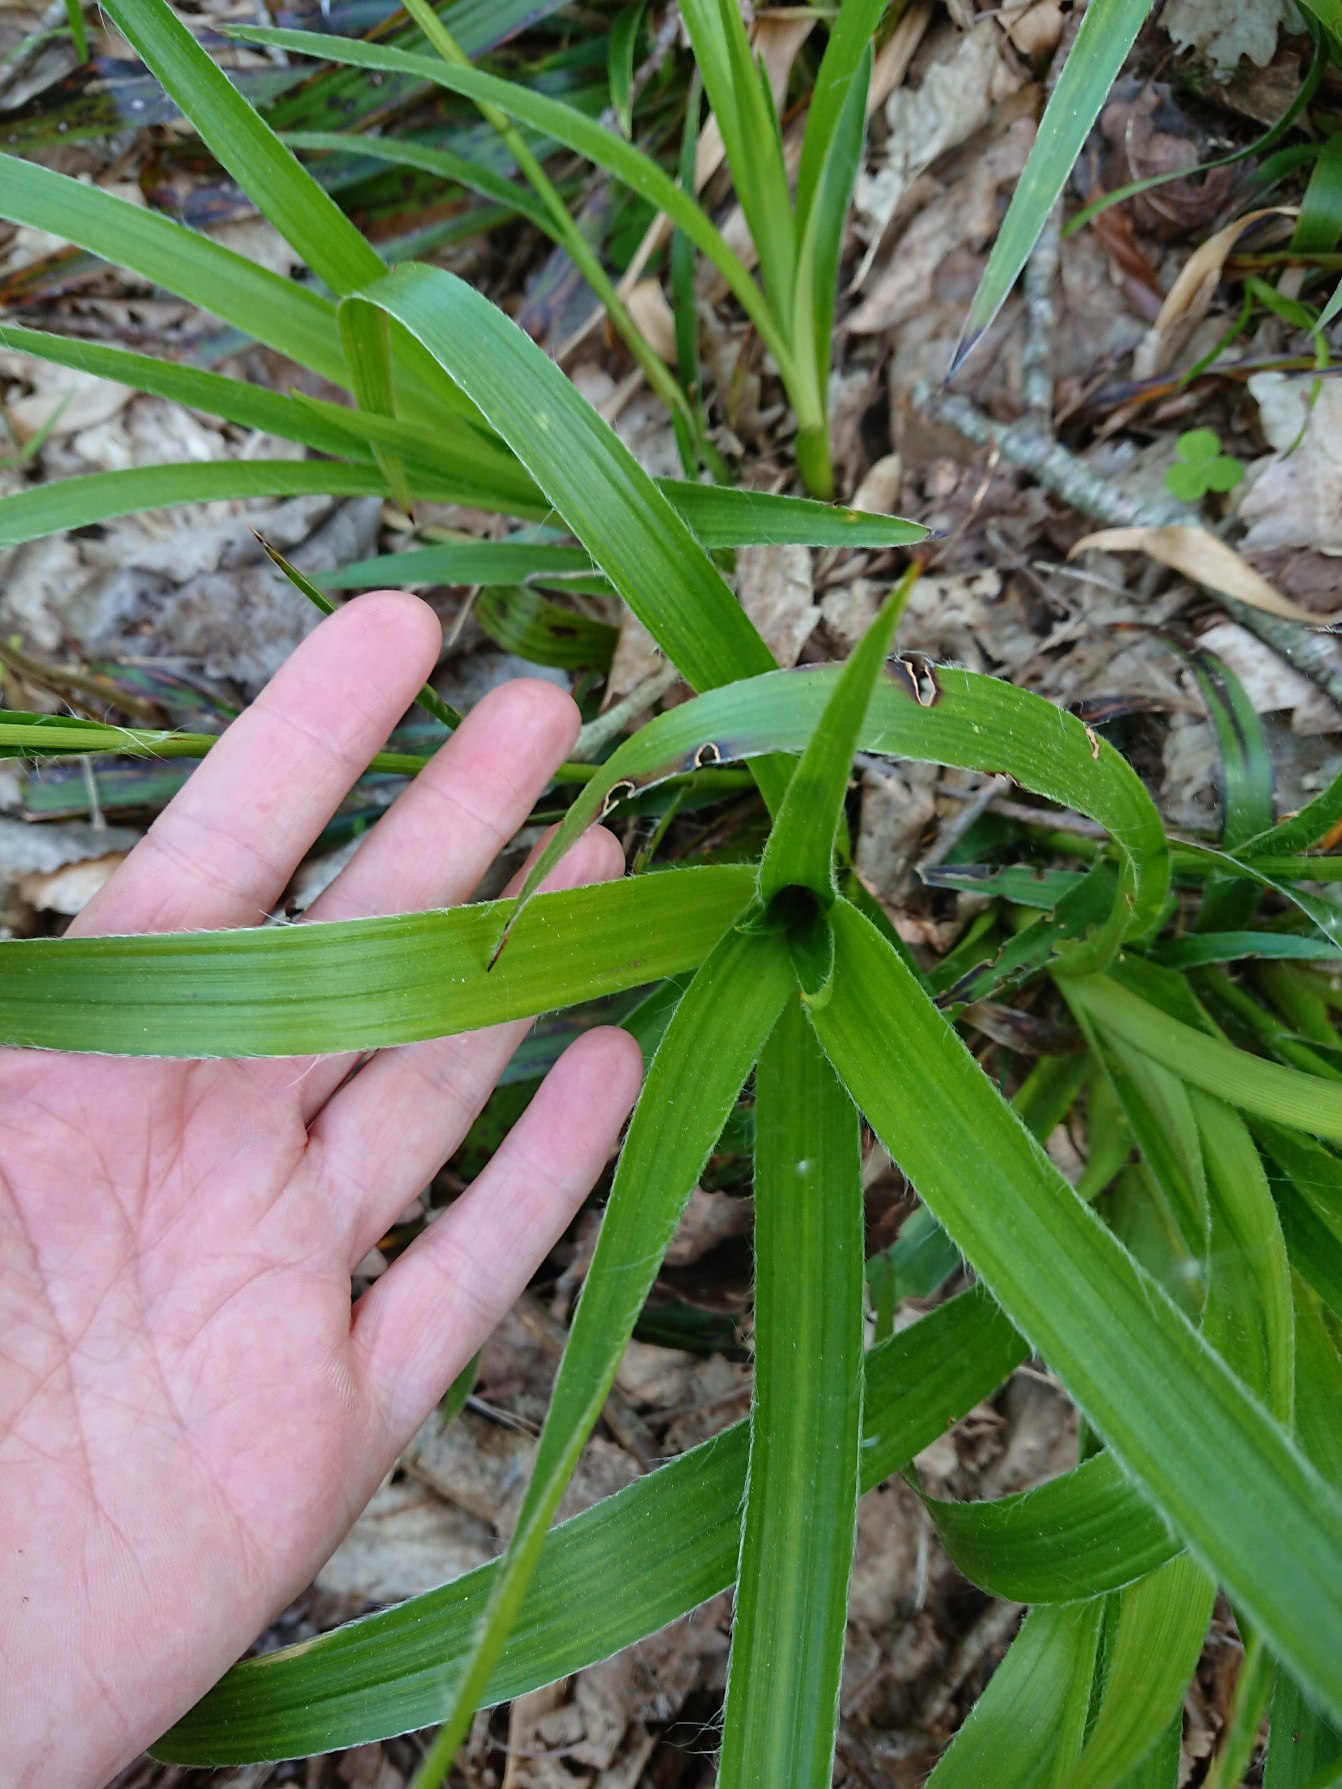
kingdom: Plantae
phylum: Tracheophyta
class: Liliopsida
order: Poales
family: Juncaceae
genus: Luzula
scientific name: Luzula sylvatica
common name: Stor frytle
